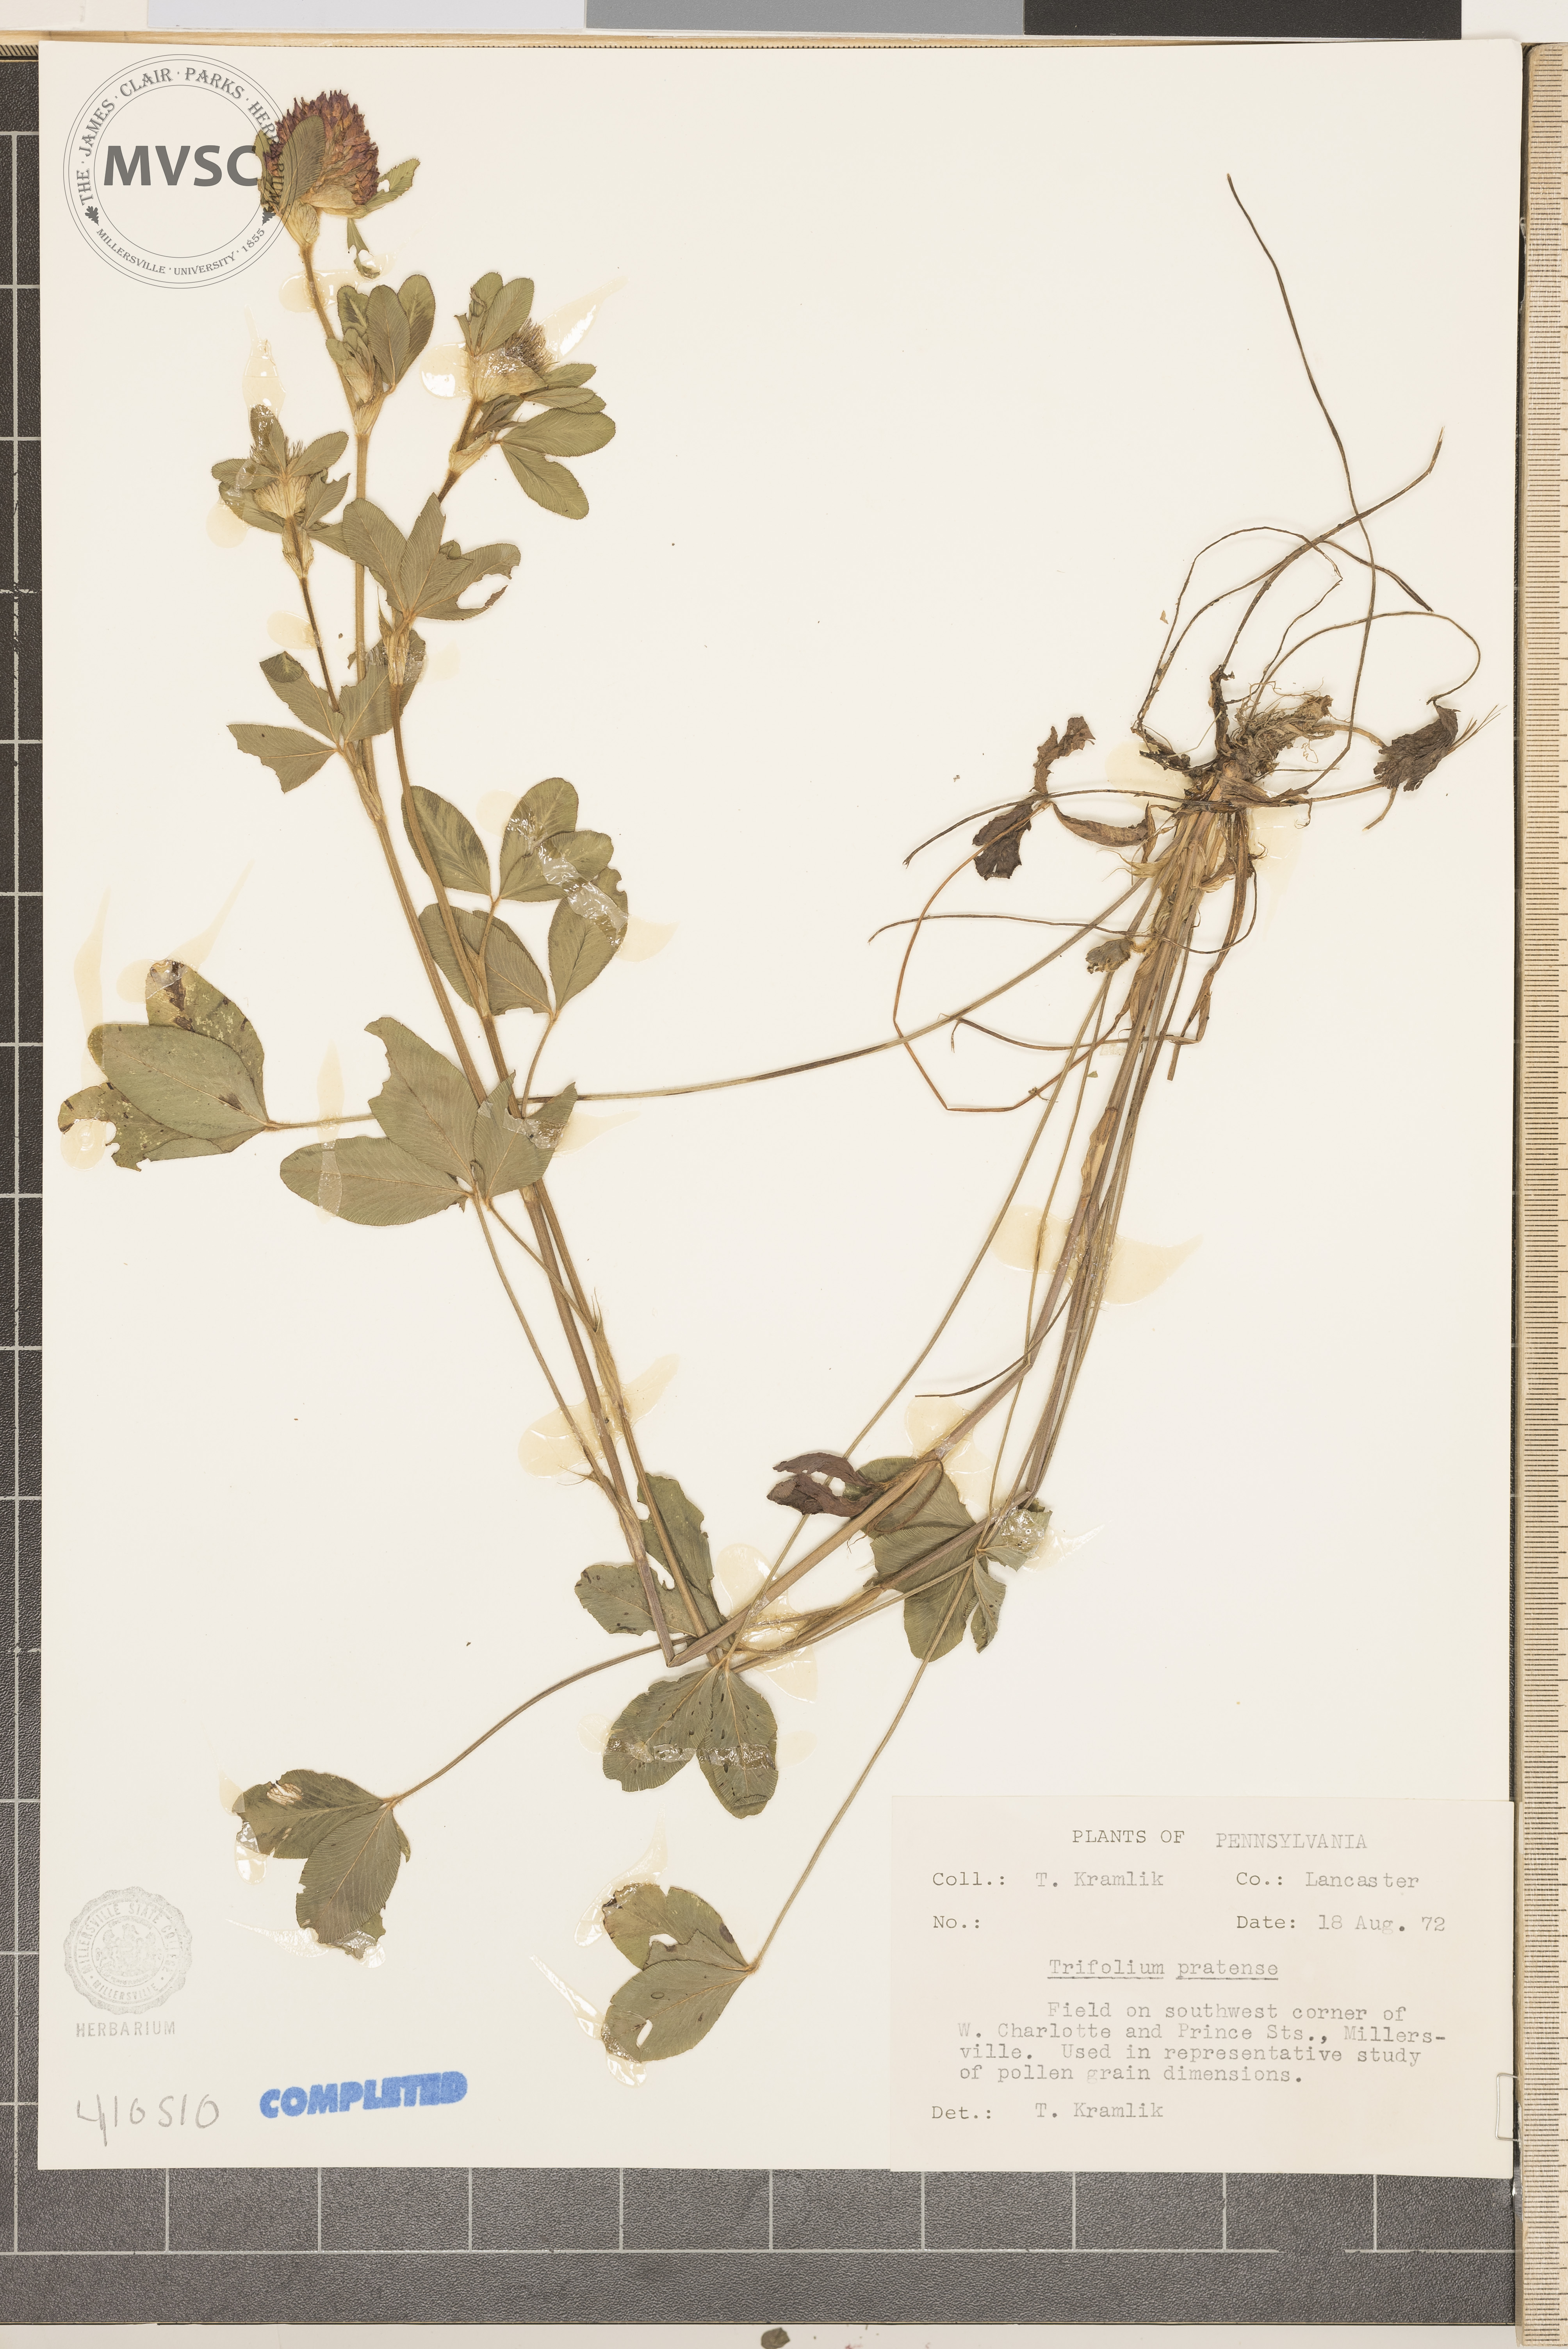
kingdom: Plantae
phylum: Tracheophyta
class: Magnoliopsida
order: Fabales
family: Fabaceae
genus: Trifolium
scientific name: Trifolium pratense
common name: Red clover
